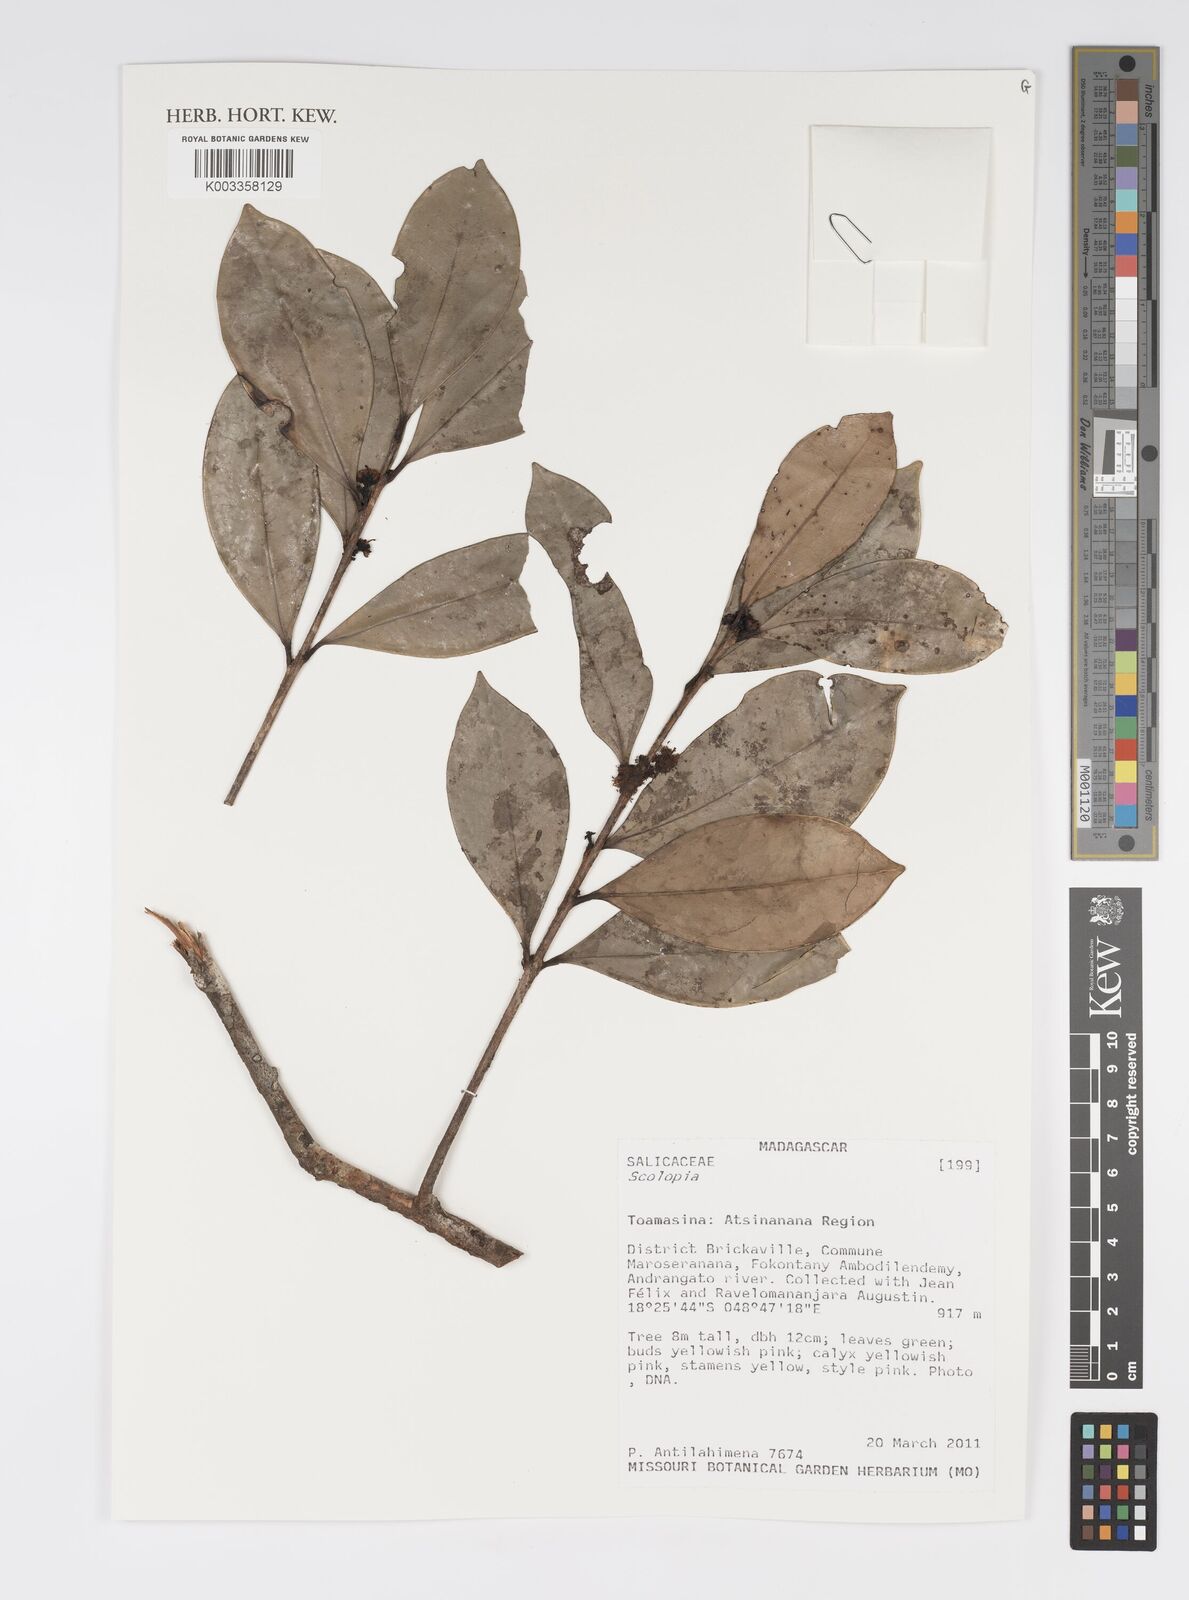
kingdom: Plantae
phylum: Tracheophyta
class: Magnoliopsida
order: Malpighiales
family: Salicaceae
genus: Scolopia
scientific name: Scolopia
